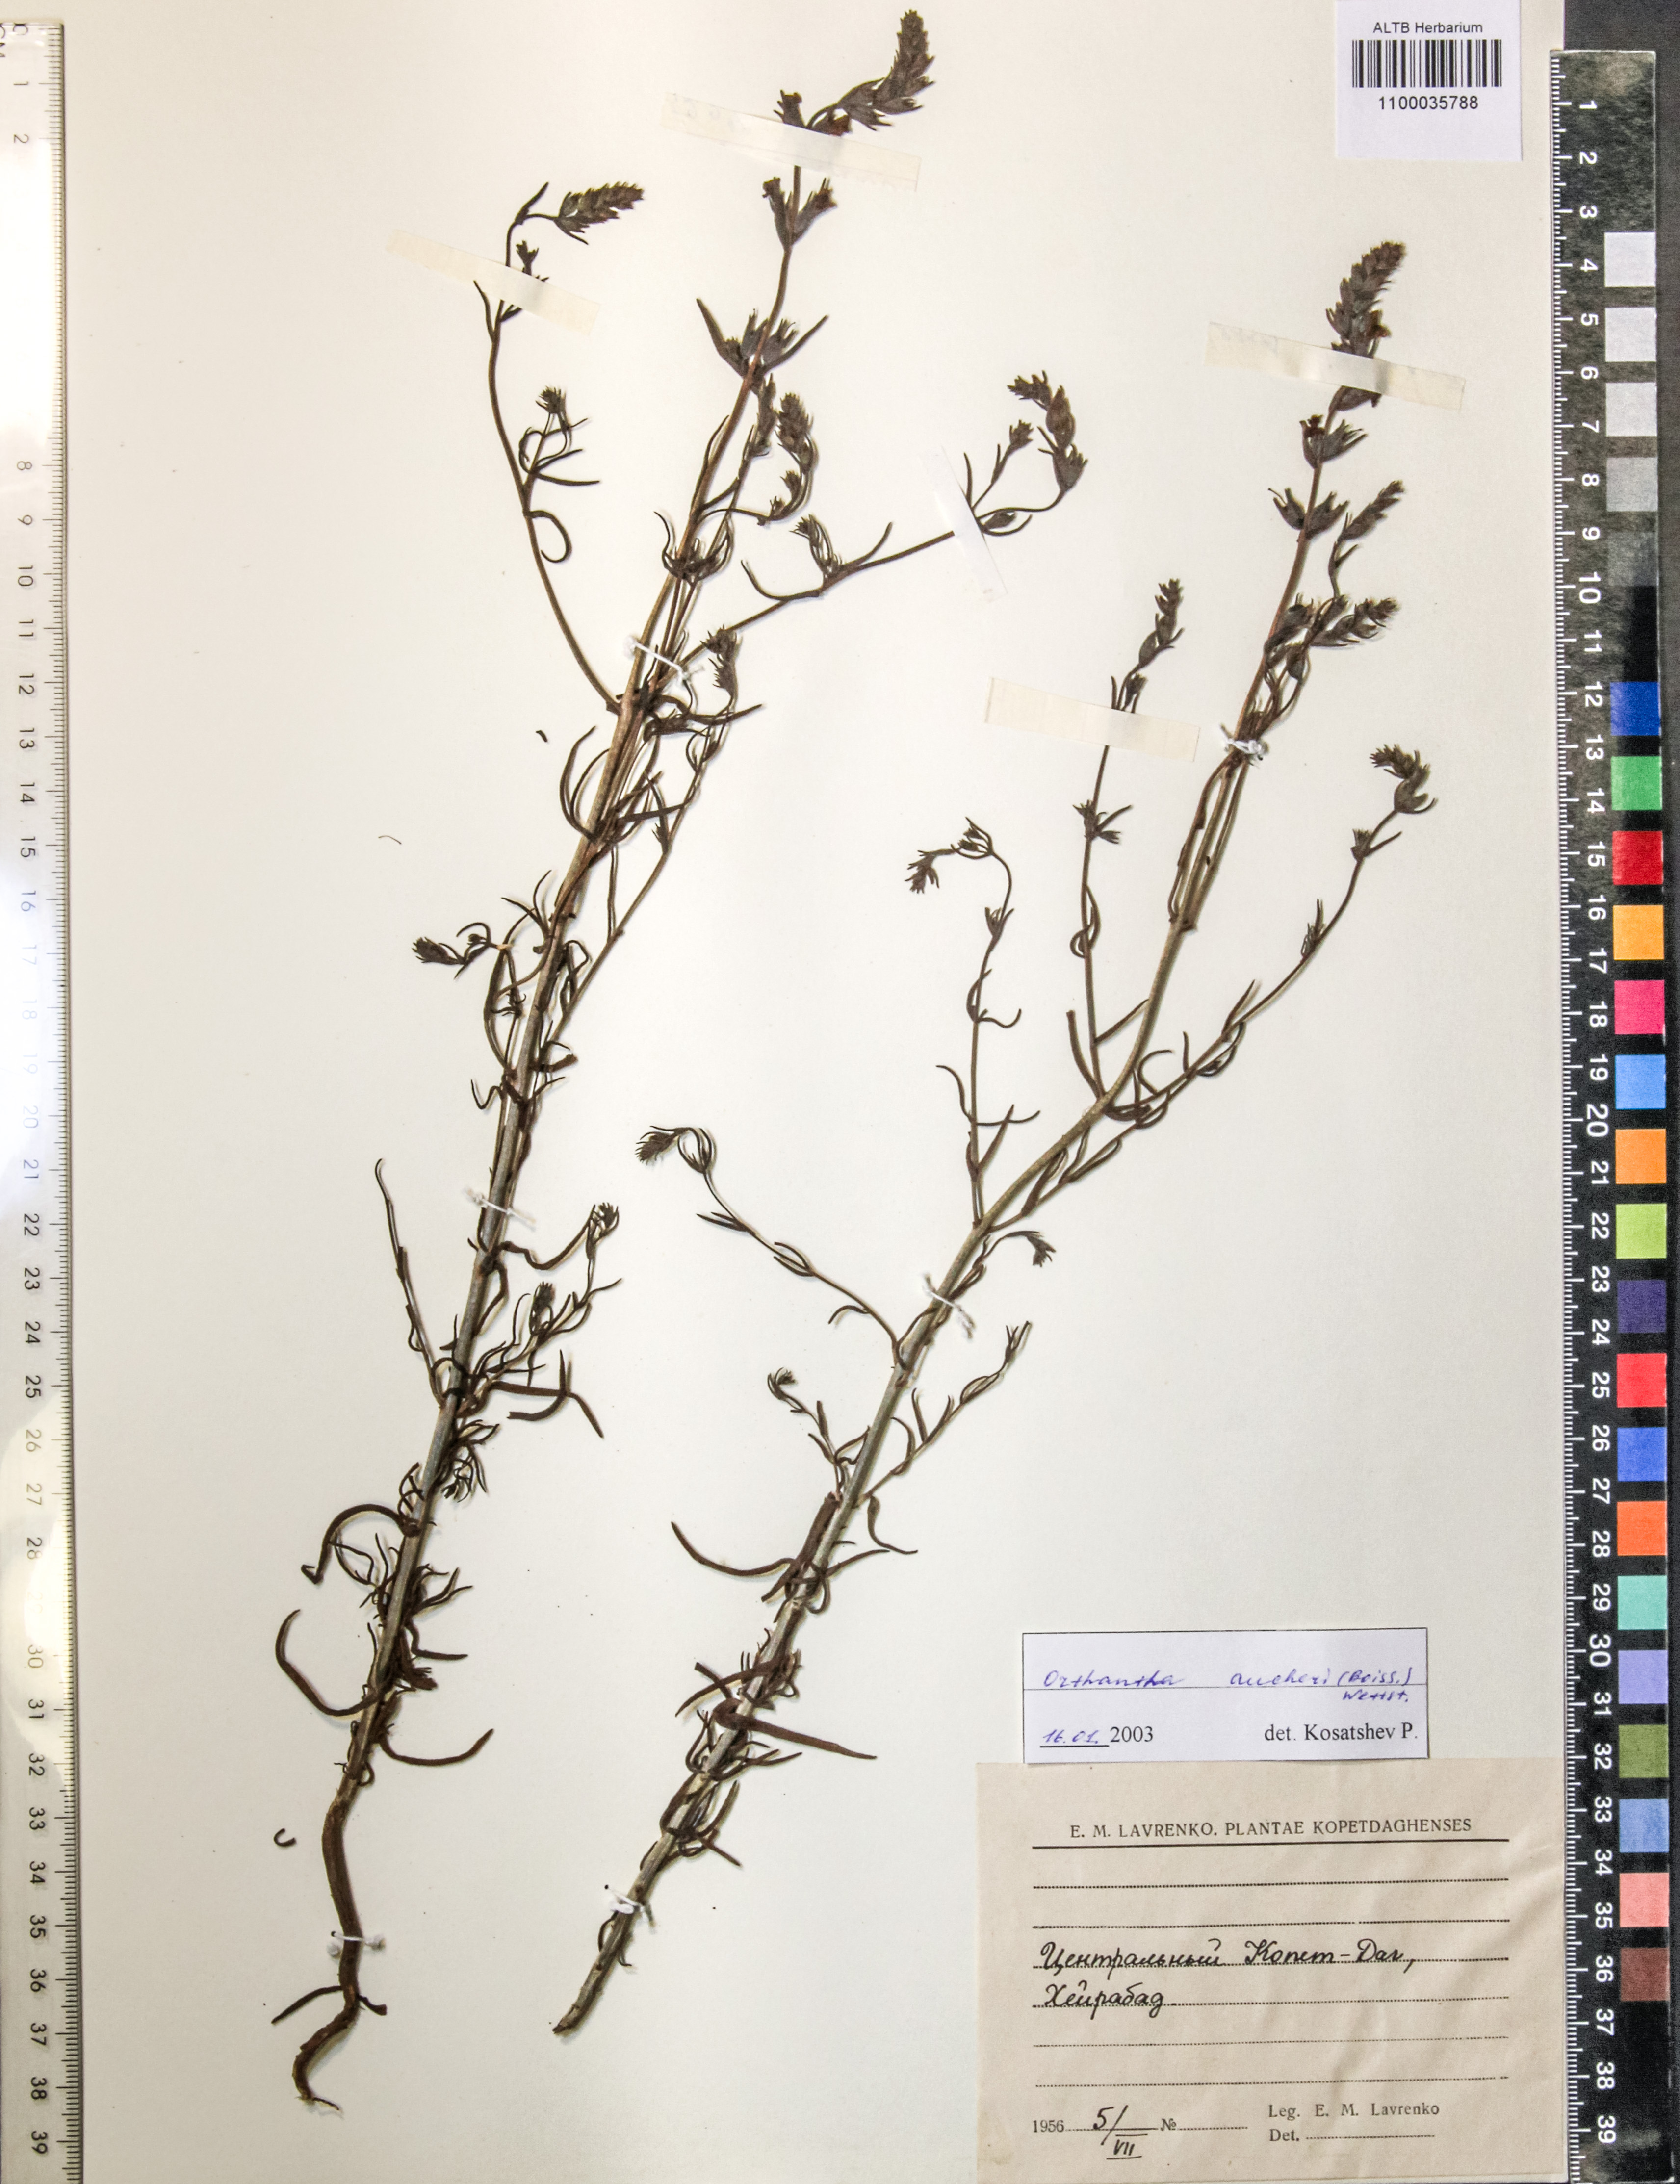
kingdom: Plantae
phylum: Tracheophyta
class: Magnoliopsida
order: Lamiales
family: Orobanchaceae
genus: Odontites
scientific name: Odontites aucheri
